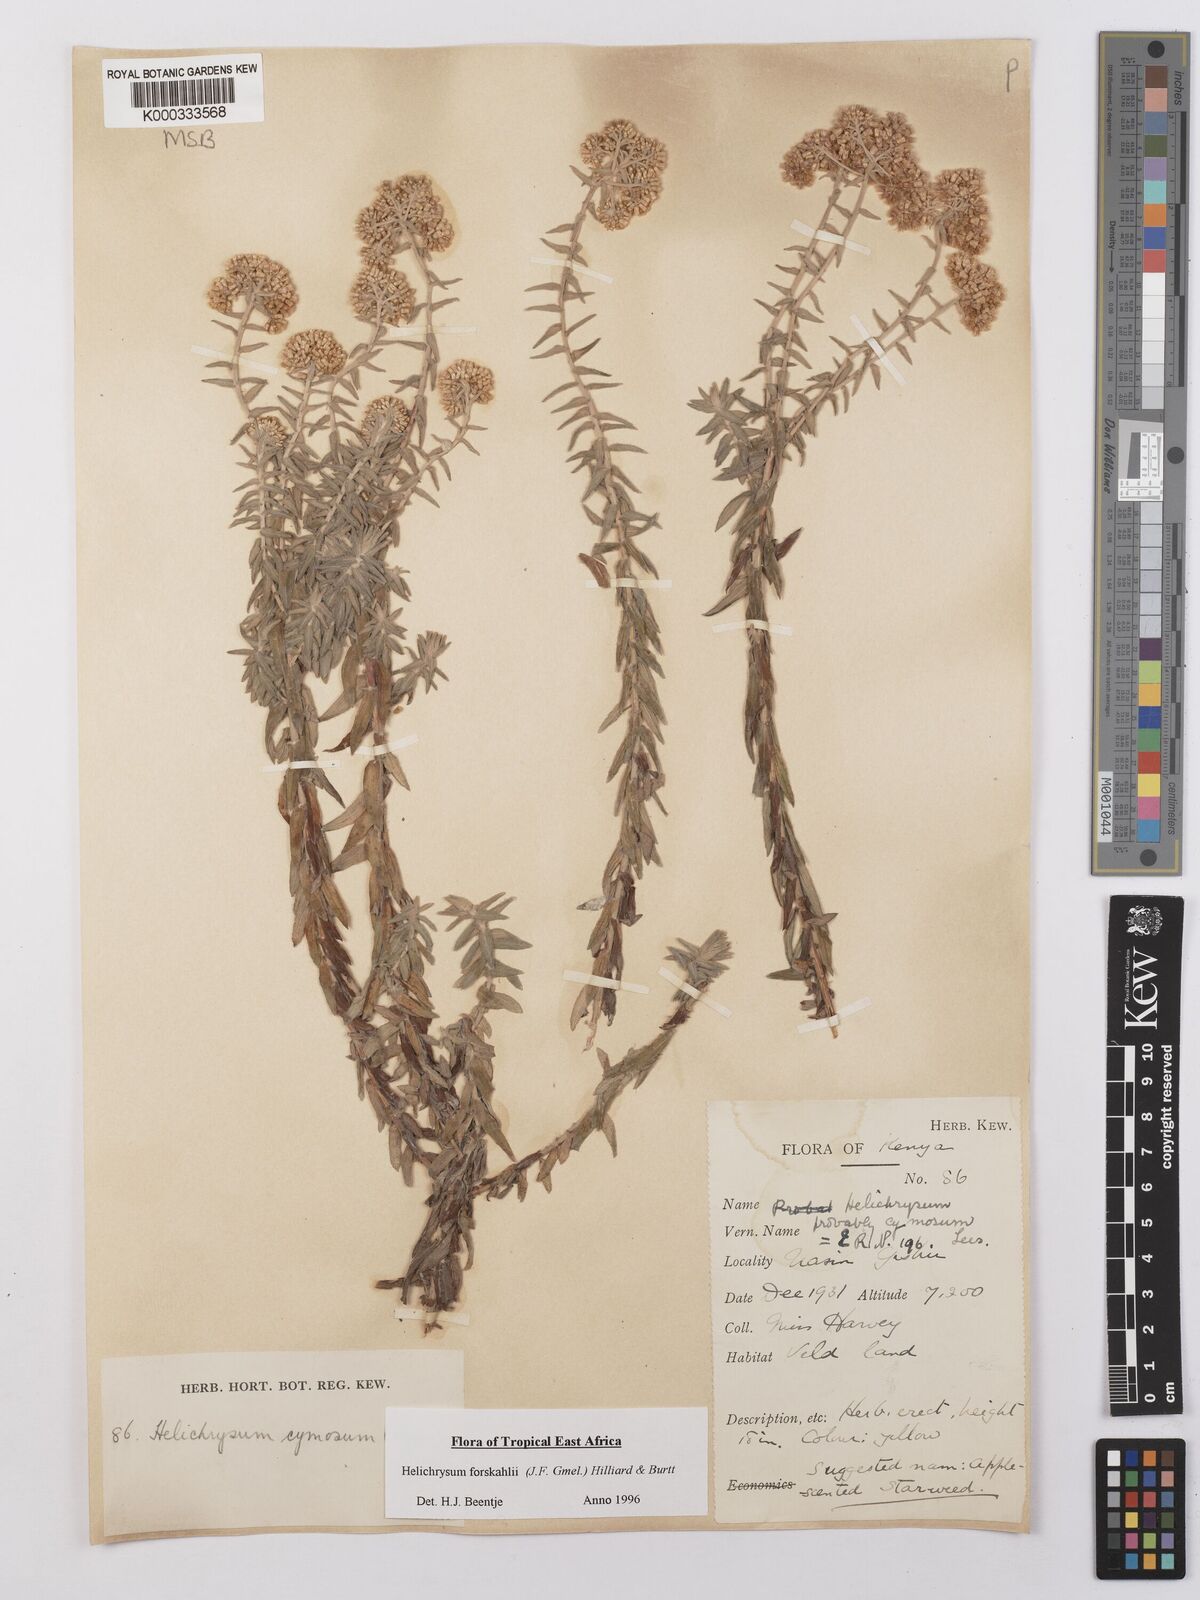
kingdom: Plantae
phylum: Tracheophyta
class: Magnoliopsida
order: Asterales
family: Asteraceae
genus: Helichrysum
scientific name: Helichrysum
